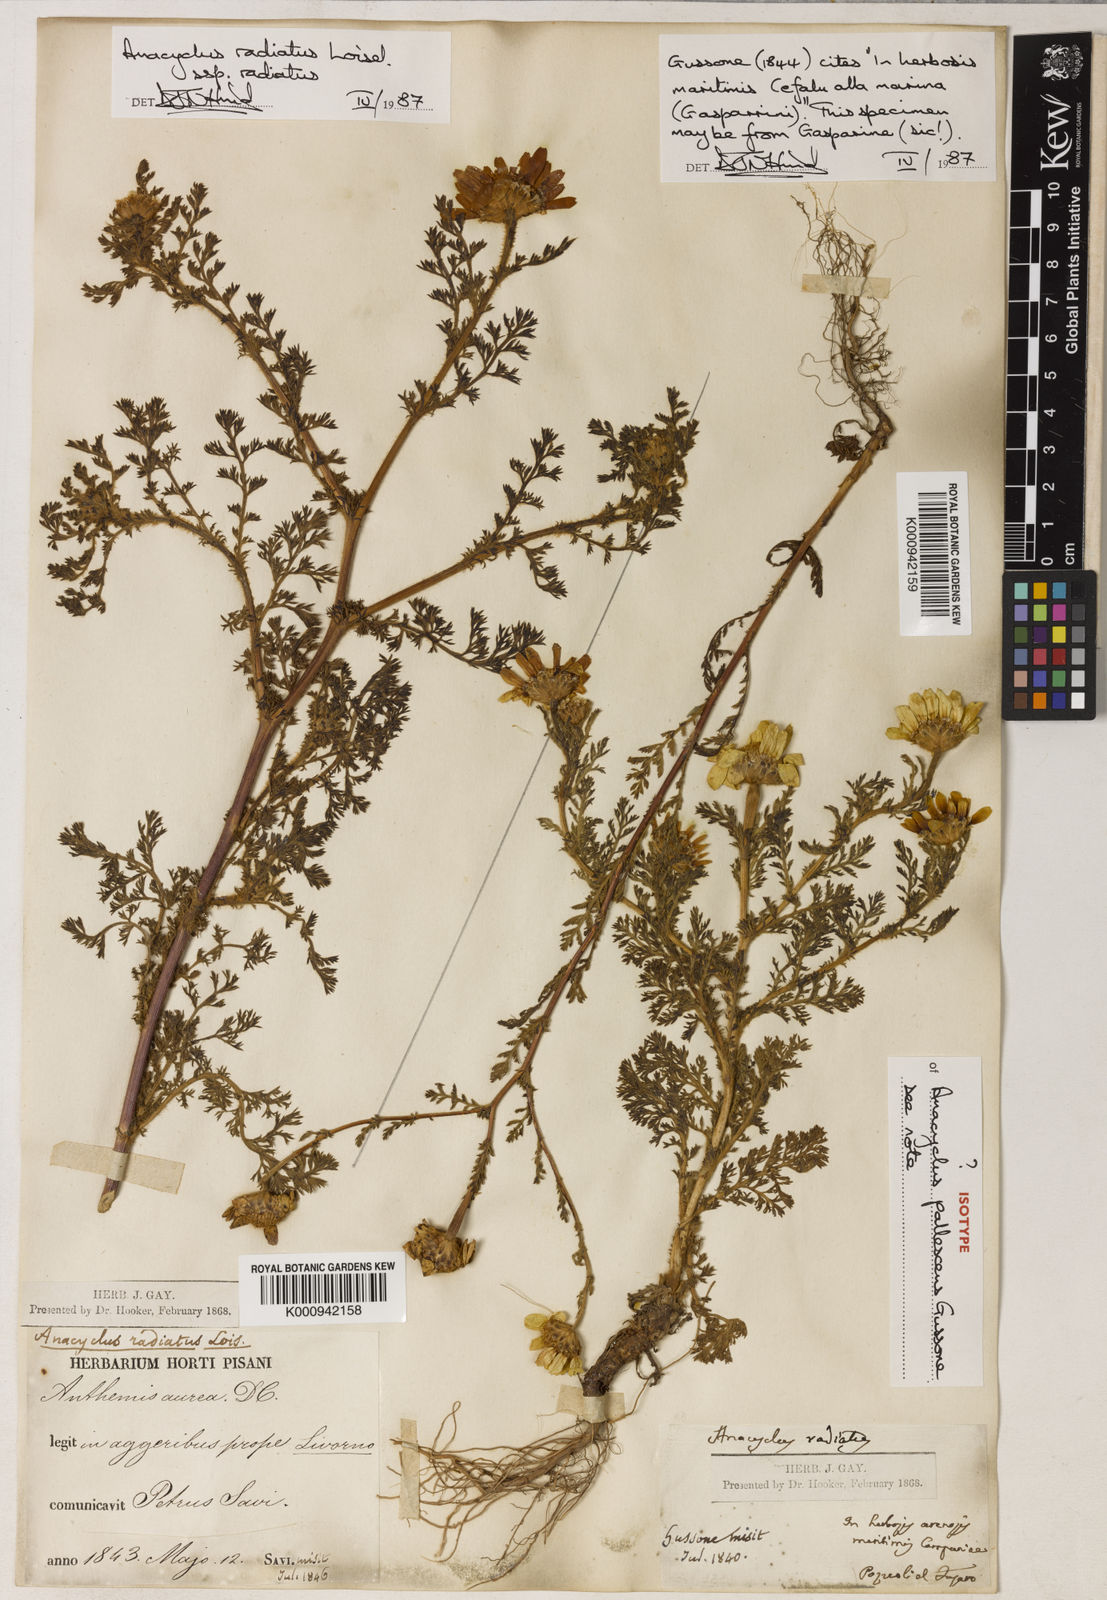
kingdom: Plantae
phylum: Tracheophyta
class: Magnoliopsida
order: Asterales
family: Asteraceae
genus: Anacyclus
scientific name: Anacyclus radiatus
